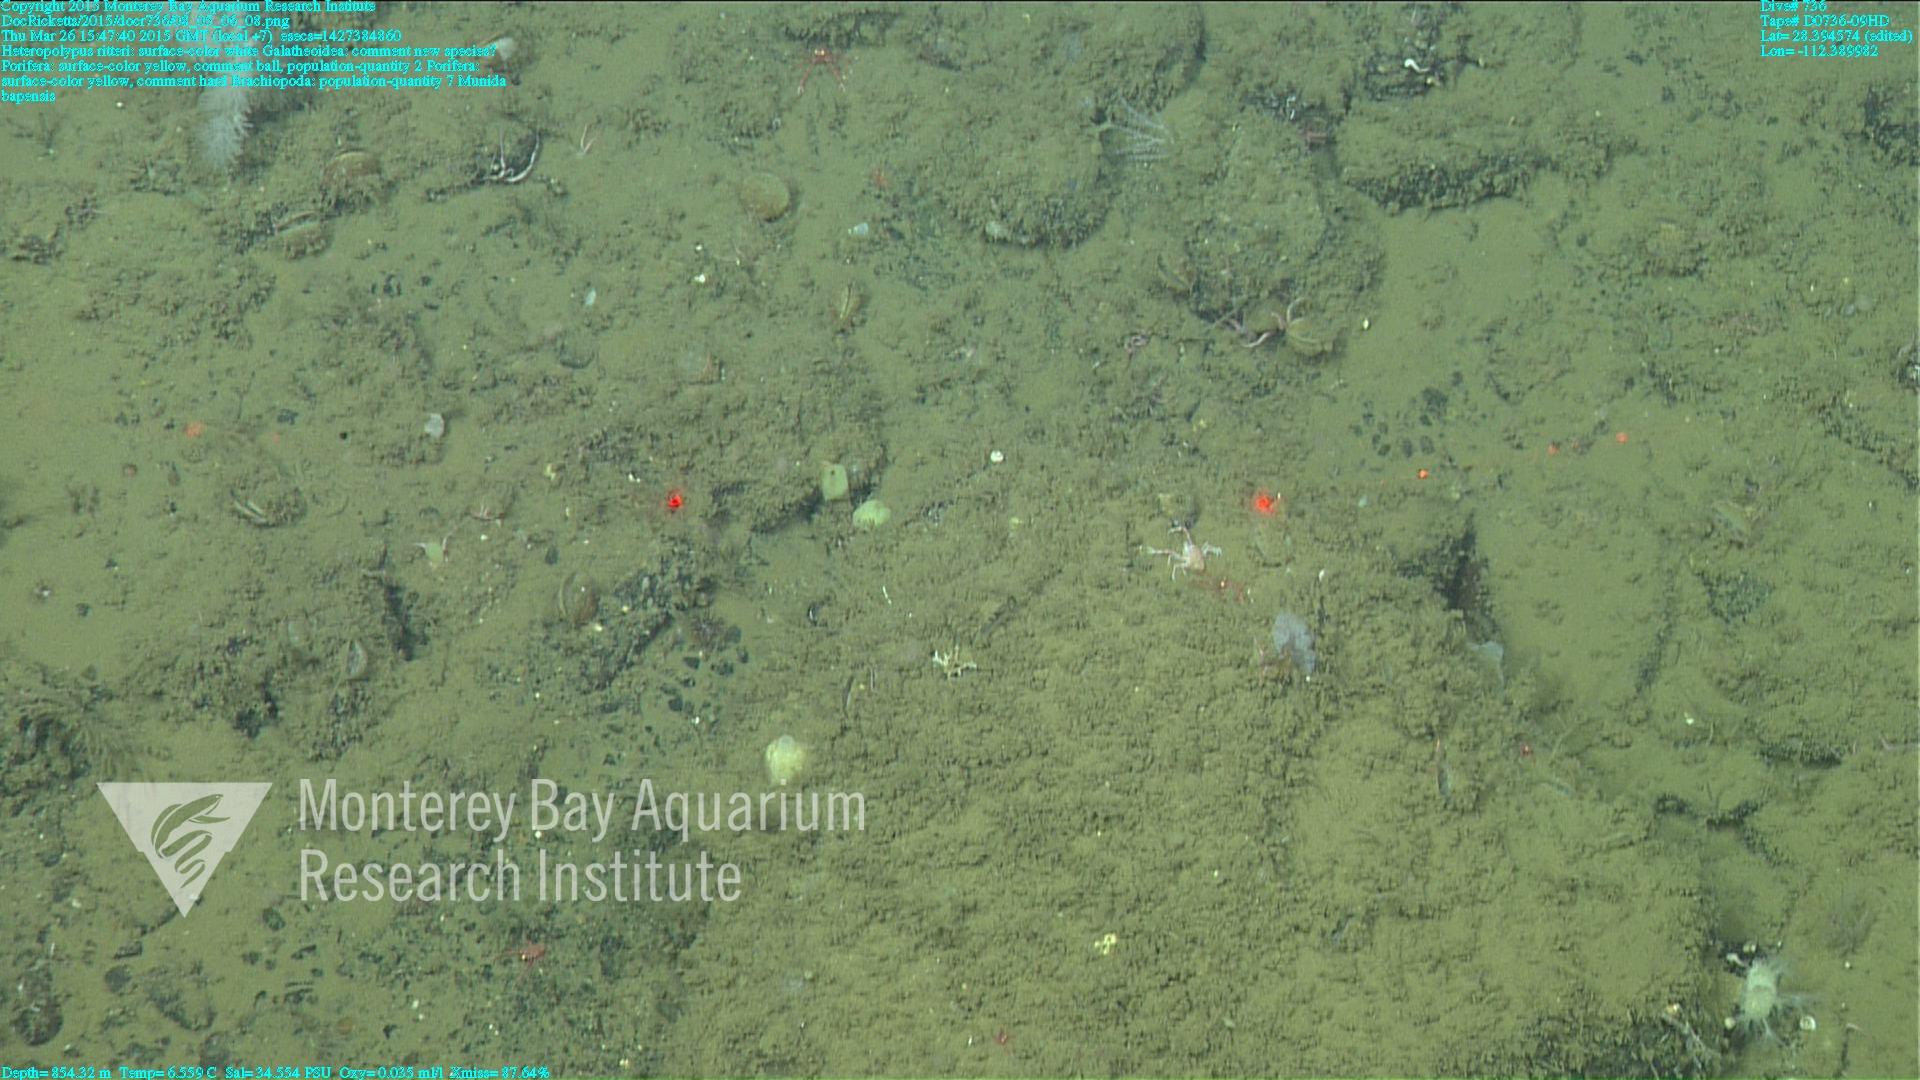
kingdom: Animalia
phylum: Cnidaria
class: Anthozoa
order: Scleralcyonacea
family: Coralliidae
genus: Heteropolypus
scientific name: Heteropolypus ritteri
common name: Ritter's soft coral
